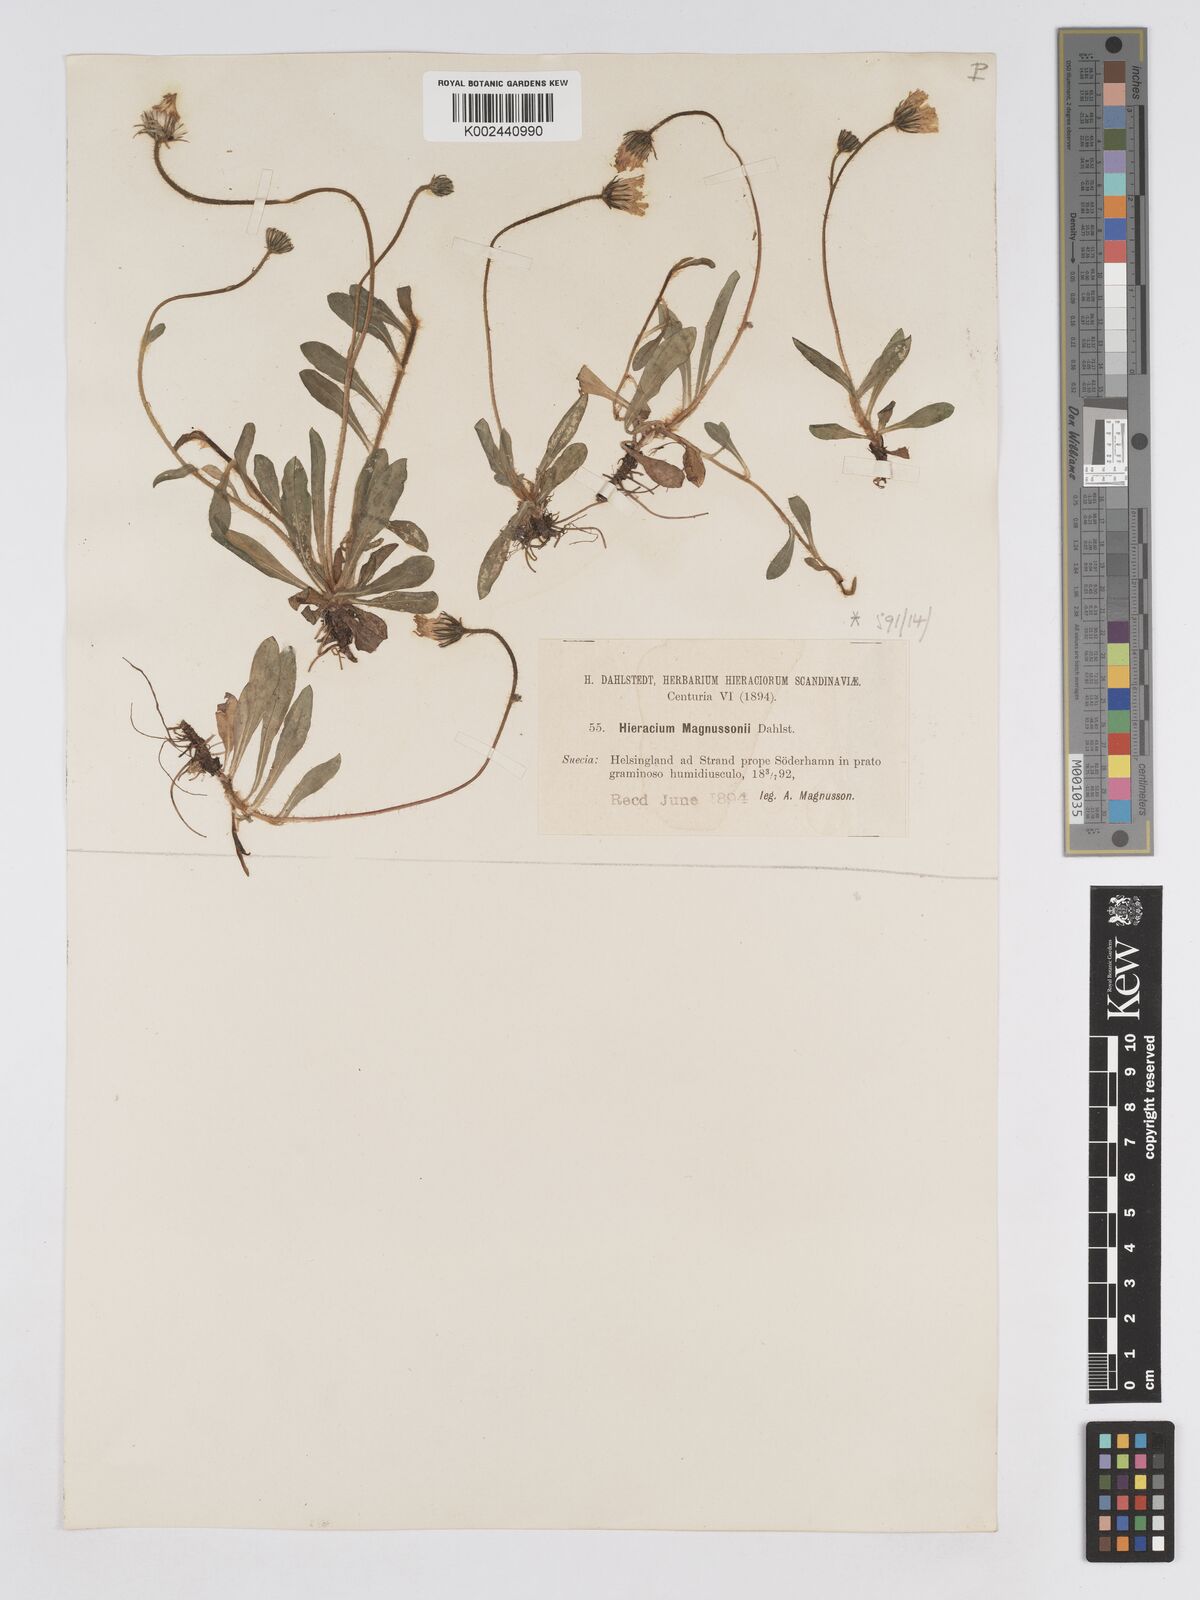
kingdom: Plantae
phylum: Tracheophyta
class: Magnoliopsida
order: Asterales
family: Asteraceae
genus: Pilosella
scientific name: Pilosella schultesii
